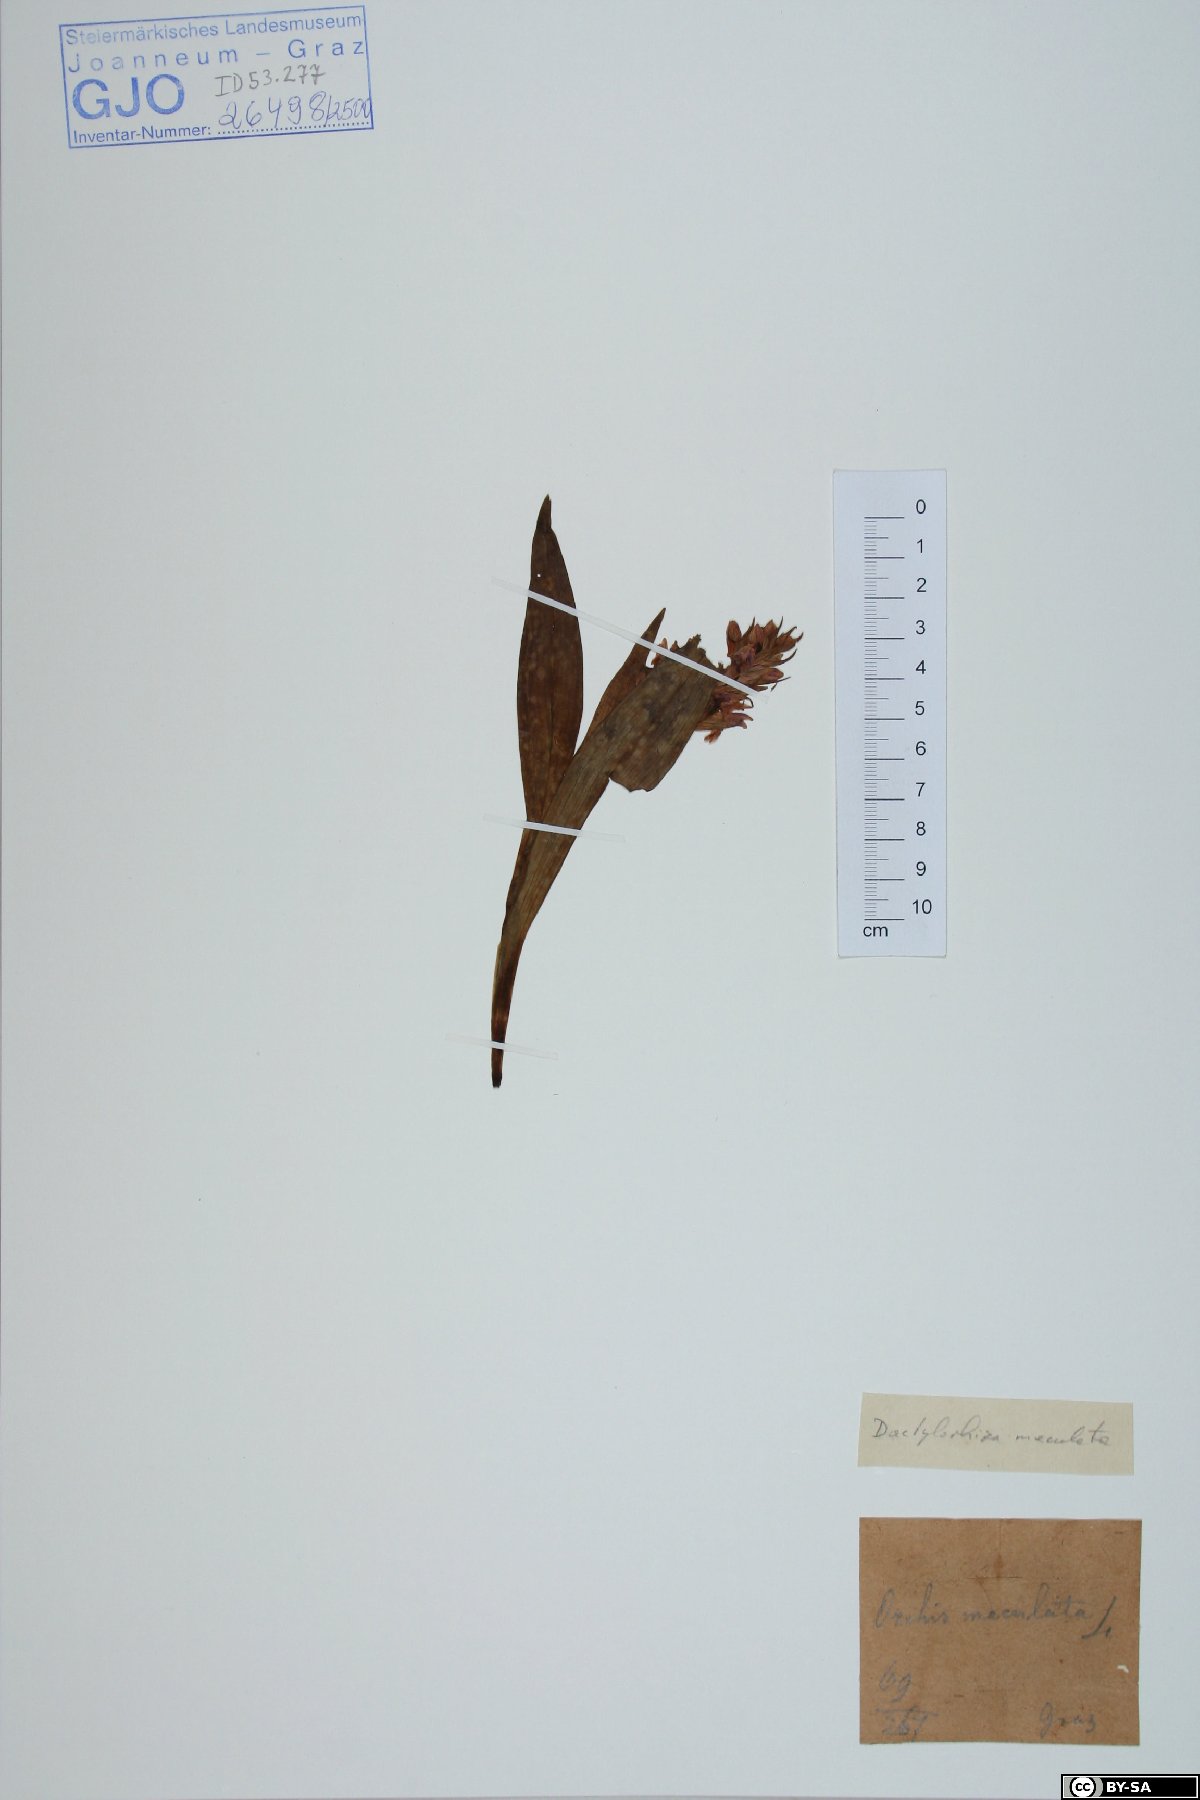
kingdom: Plantae
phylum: Tracheophyta
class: Liliopsida
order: Asparagales
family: Orchidaceae
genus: Dactylorhiza
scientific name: Dactylorhiza maculata
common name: Heath spotted-orchid
